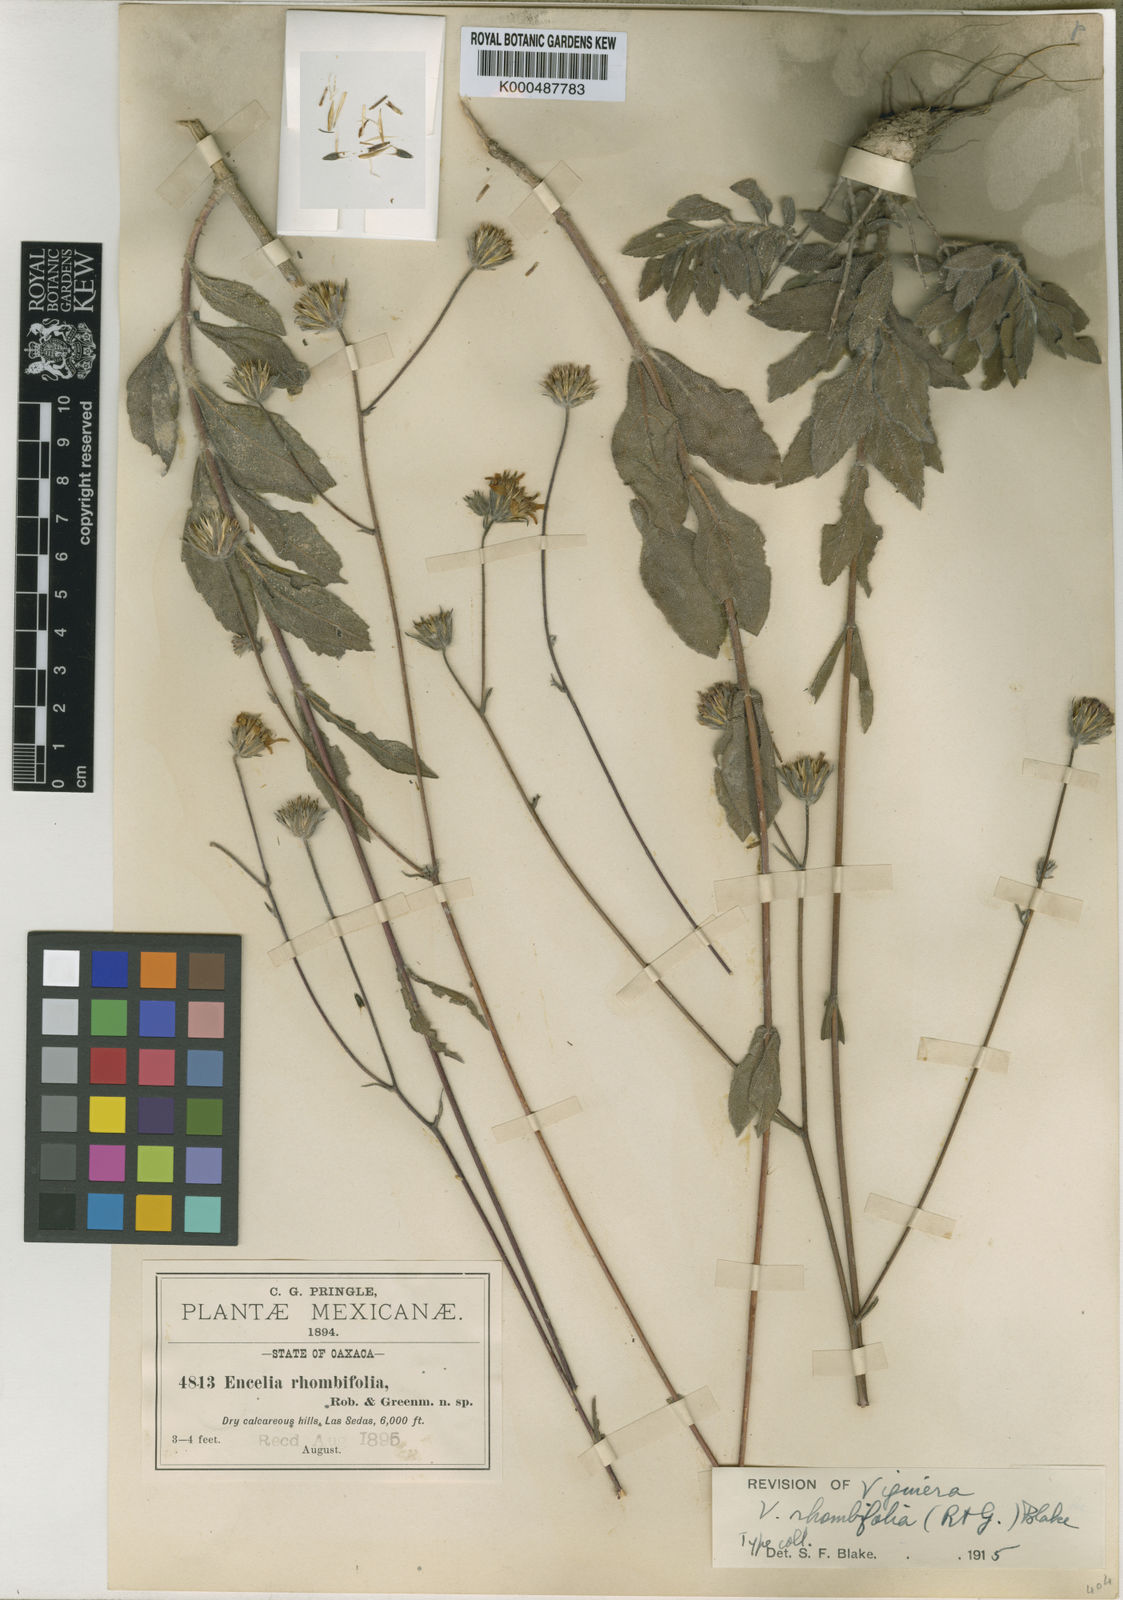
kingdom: Plantae
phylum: Tracheophyta
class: Magnoliopsida
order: Asterales
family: Asteraceae
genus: Simsia
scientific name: Simsia rhombifolia
